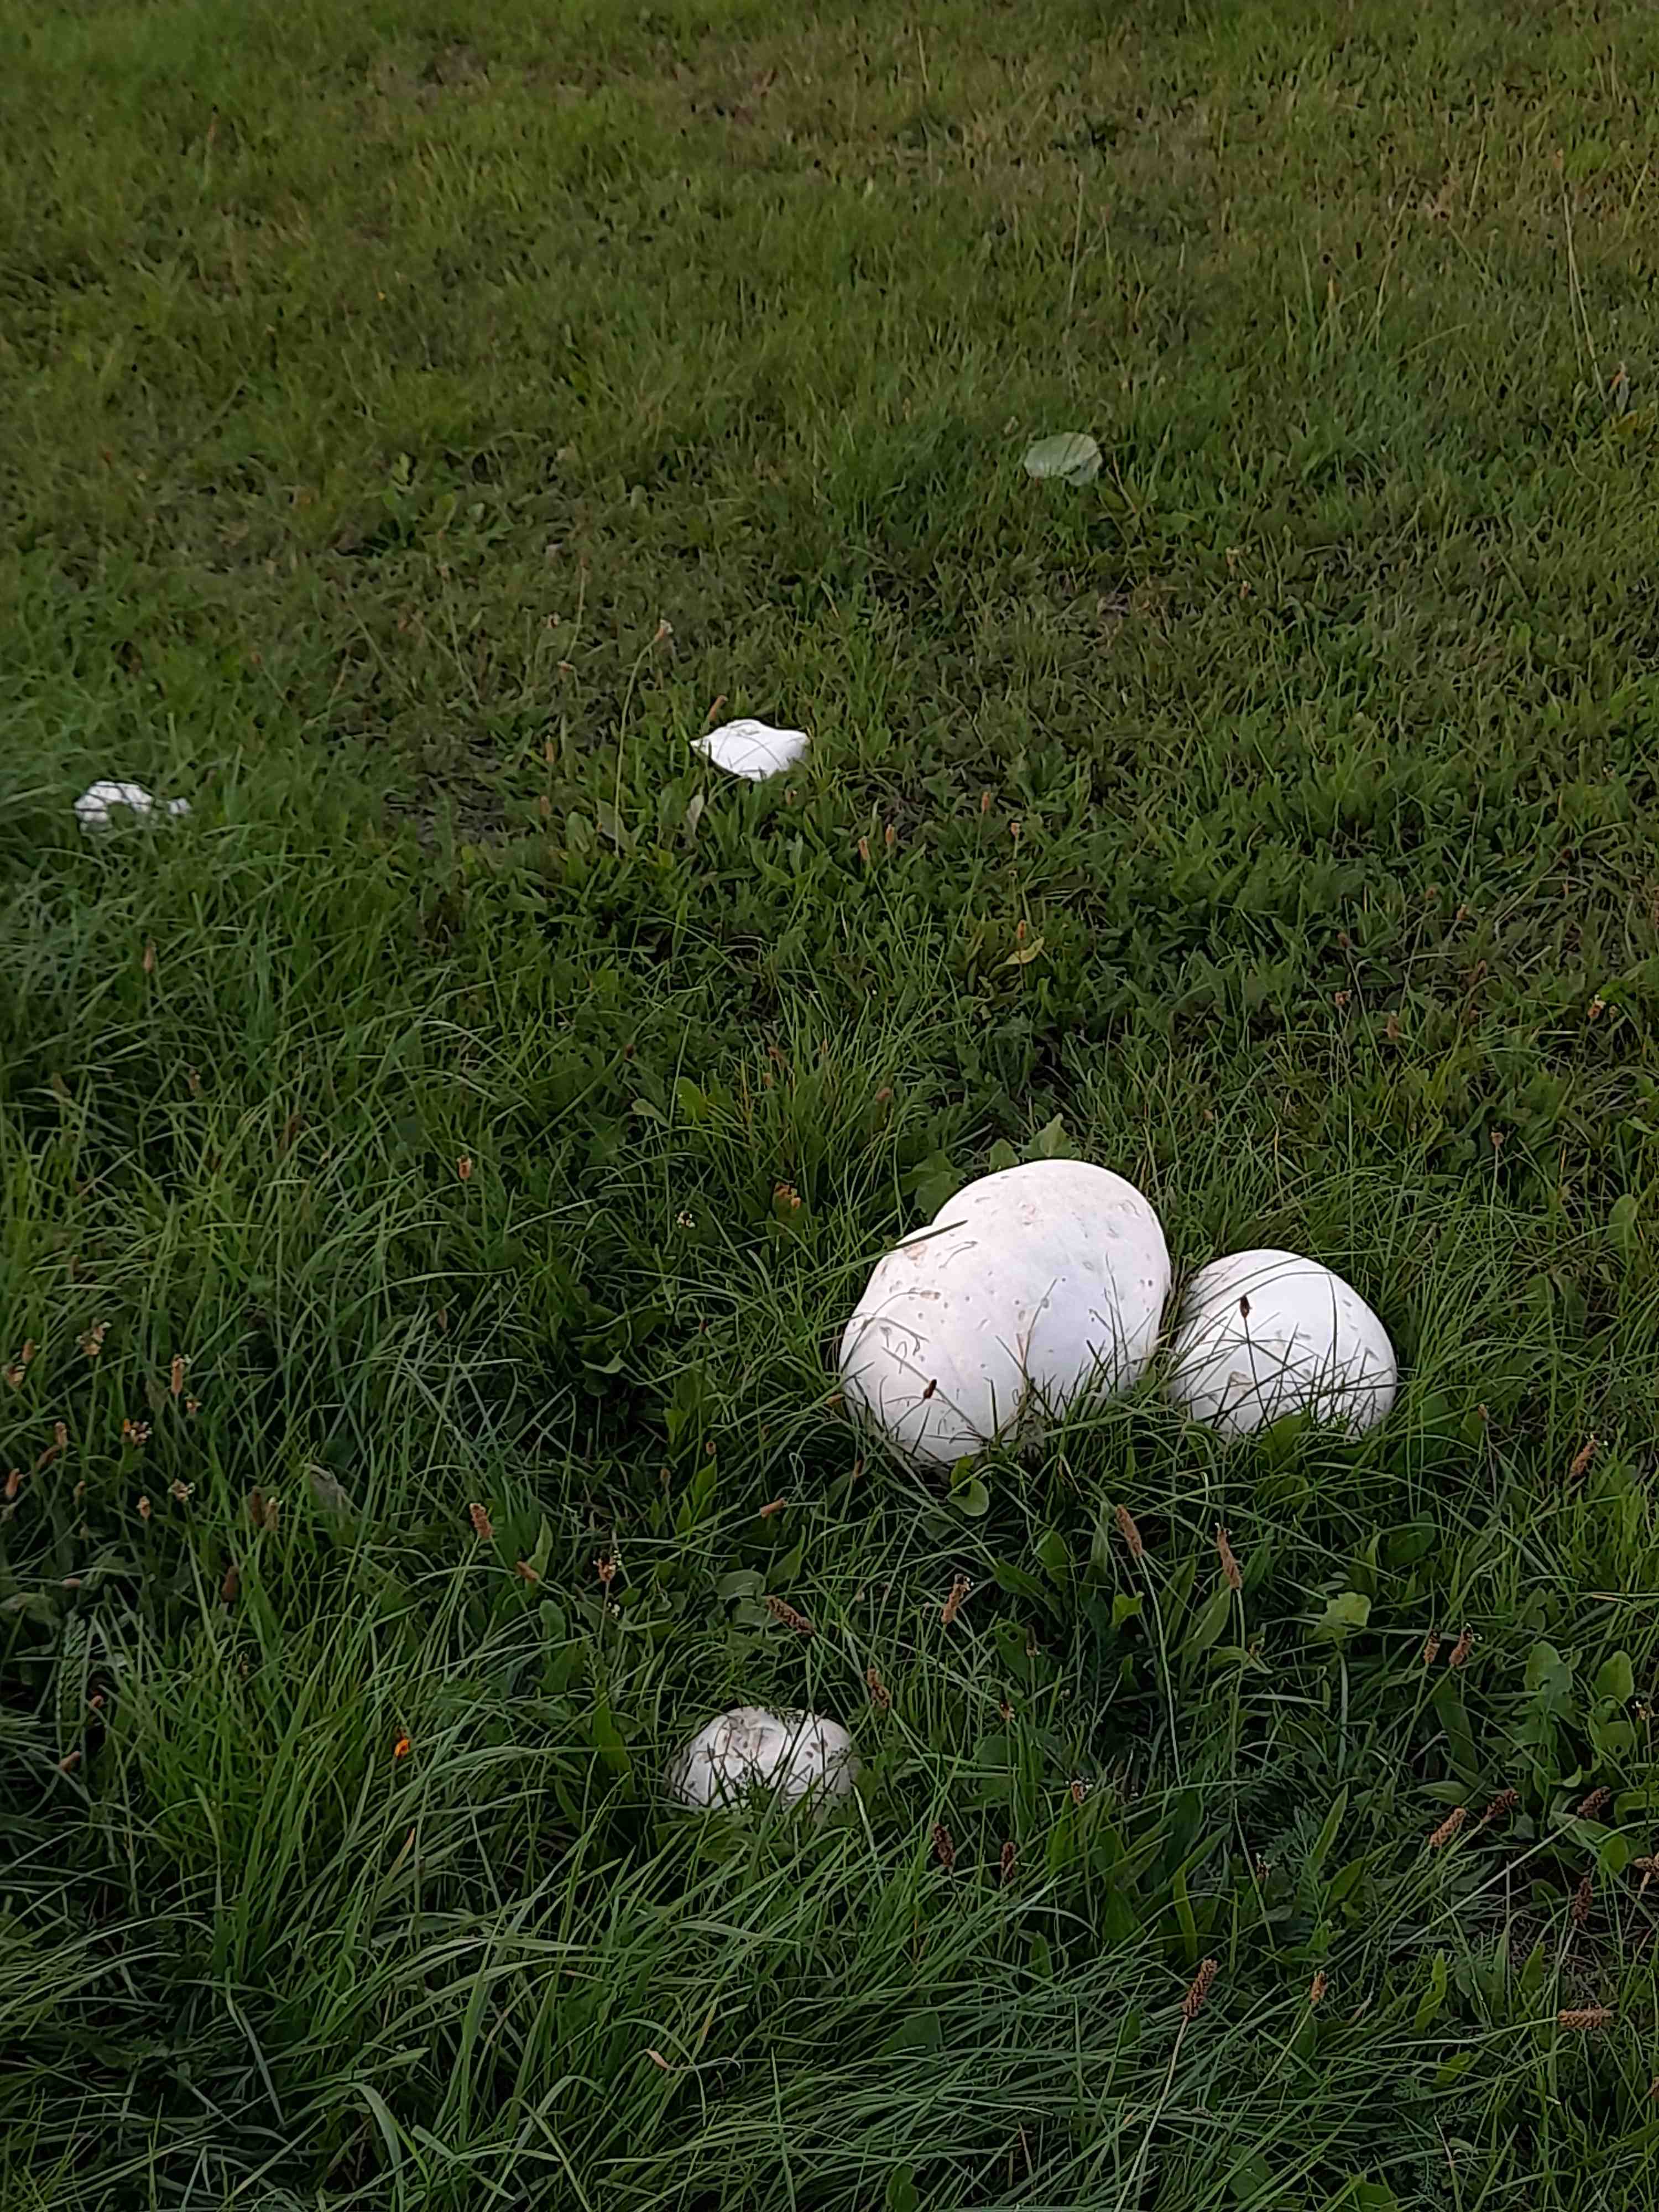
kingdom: Fungi
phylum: Basidiomycota
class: Agaricomycetes
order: Agaricales
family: Lycoperdaceae
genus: Calvatia
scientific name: Calvatia gigantea
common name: kæmpestøvbold
